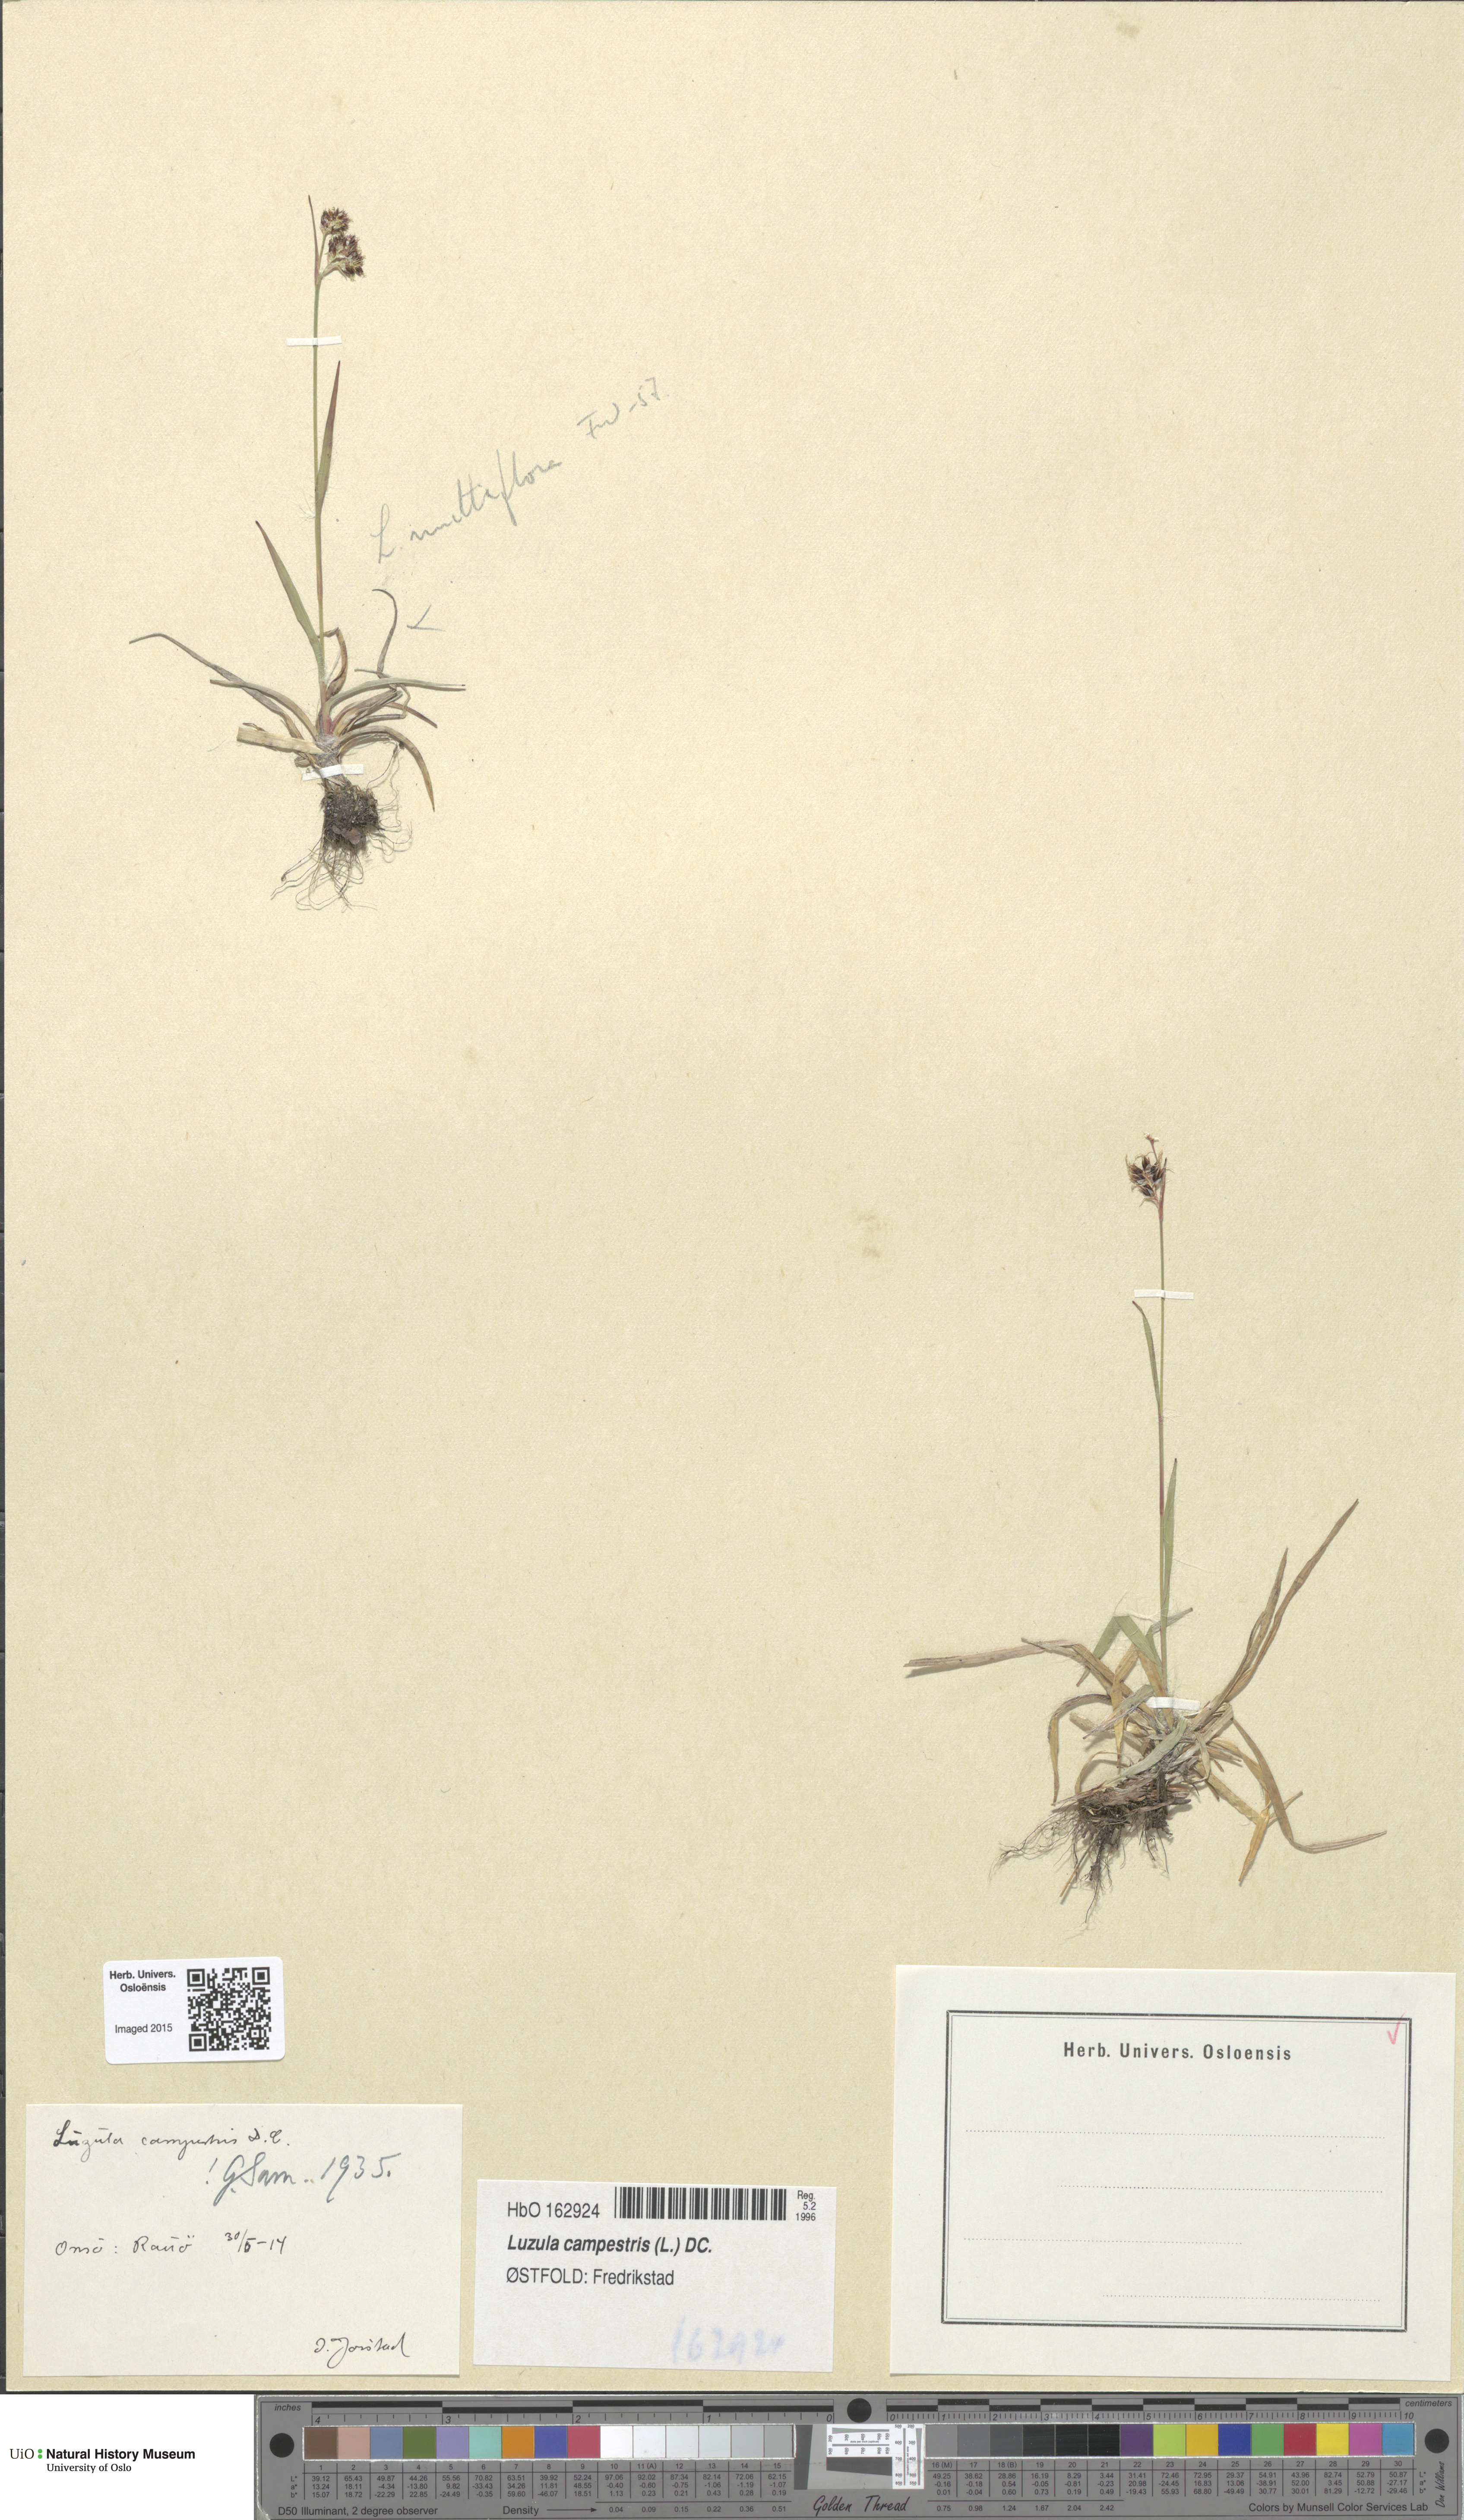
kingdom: Plantae
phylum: Tracheophyta
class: Liliopsida
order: Poales
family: Juncaceae
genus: Luzula
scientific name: Luzula campestris
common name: Field wood-rush
